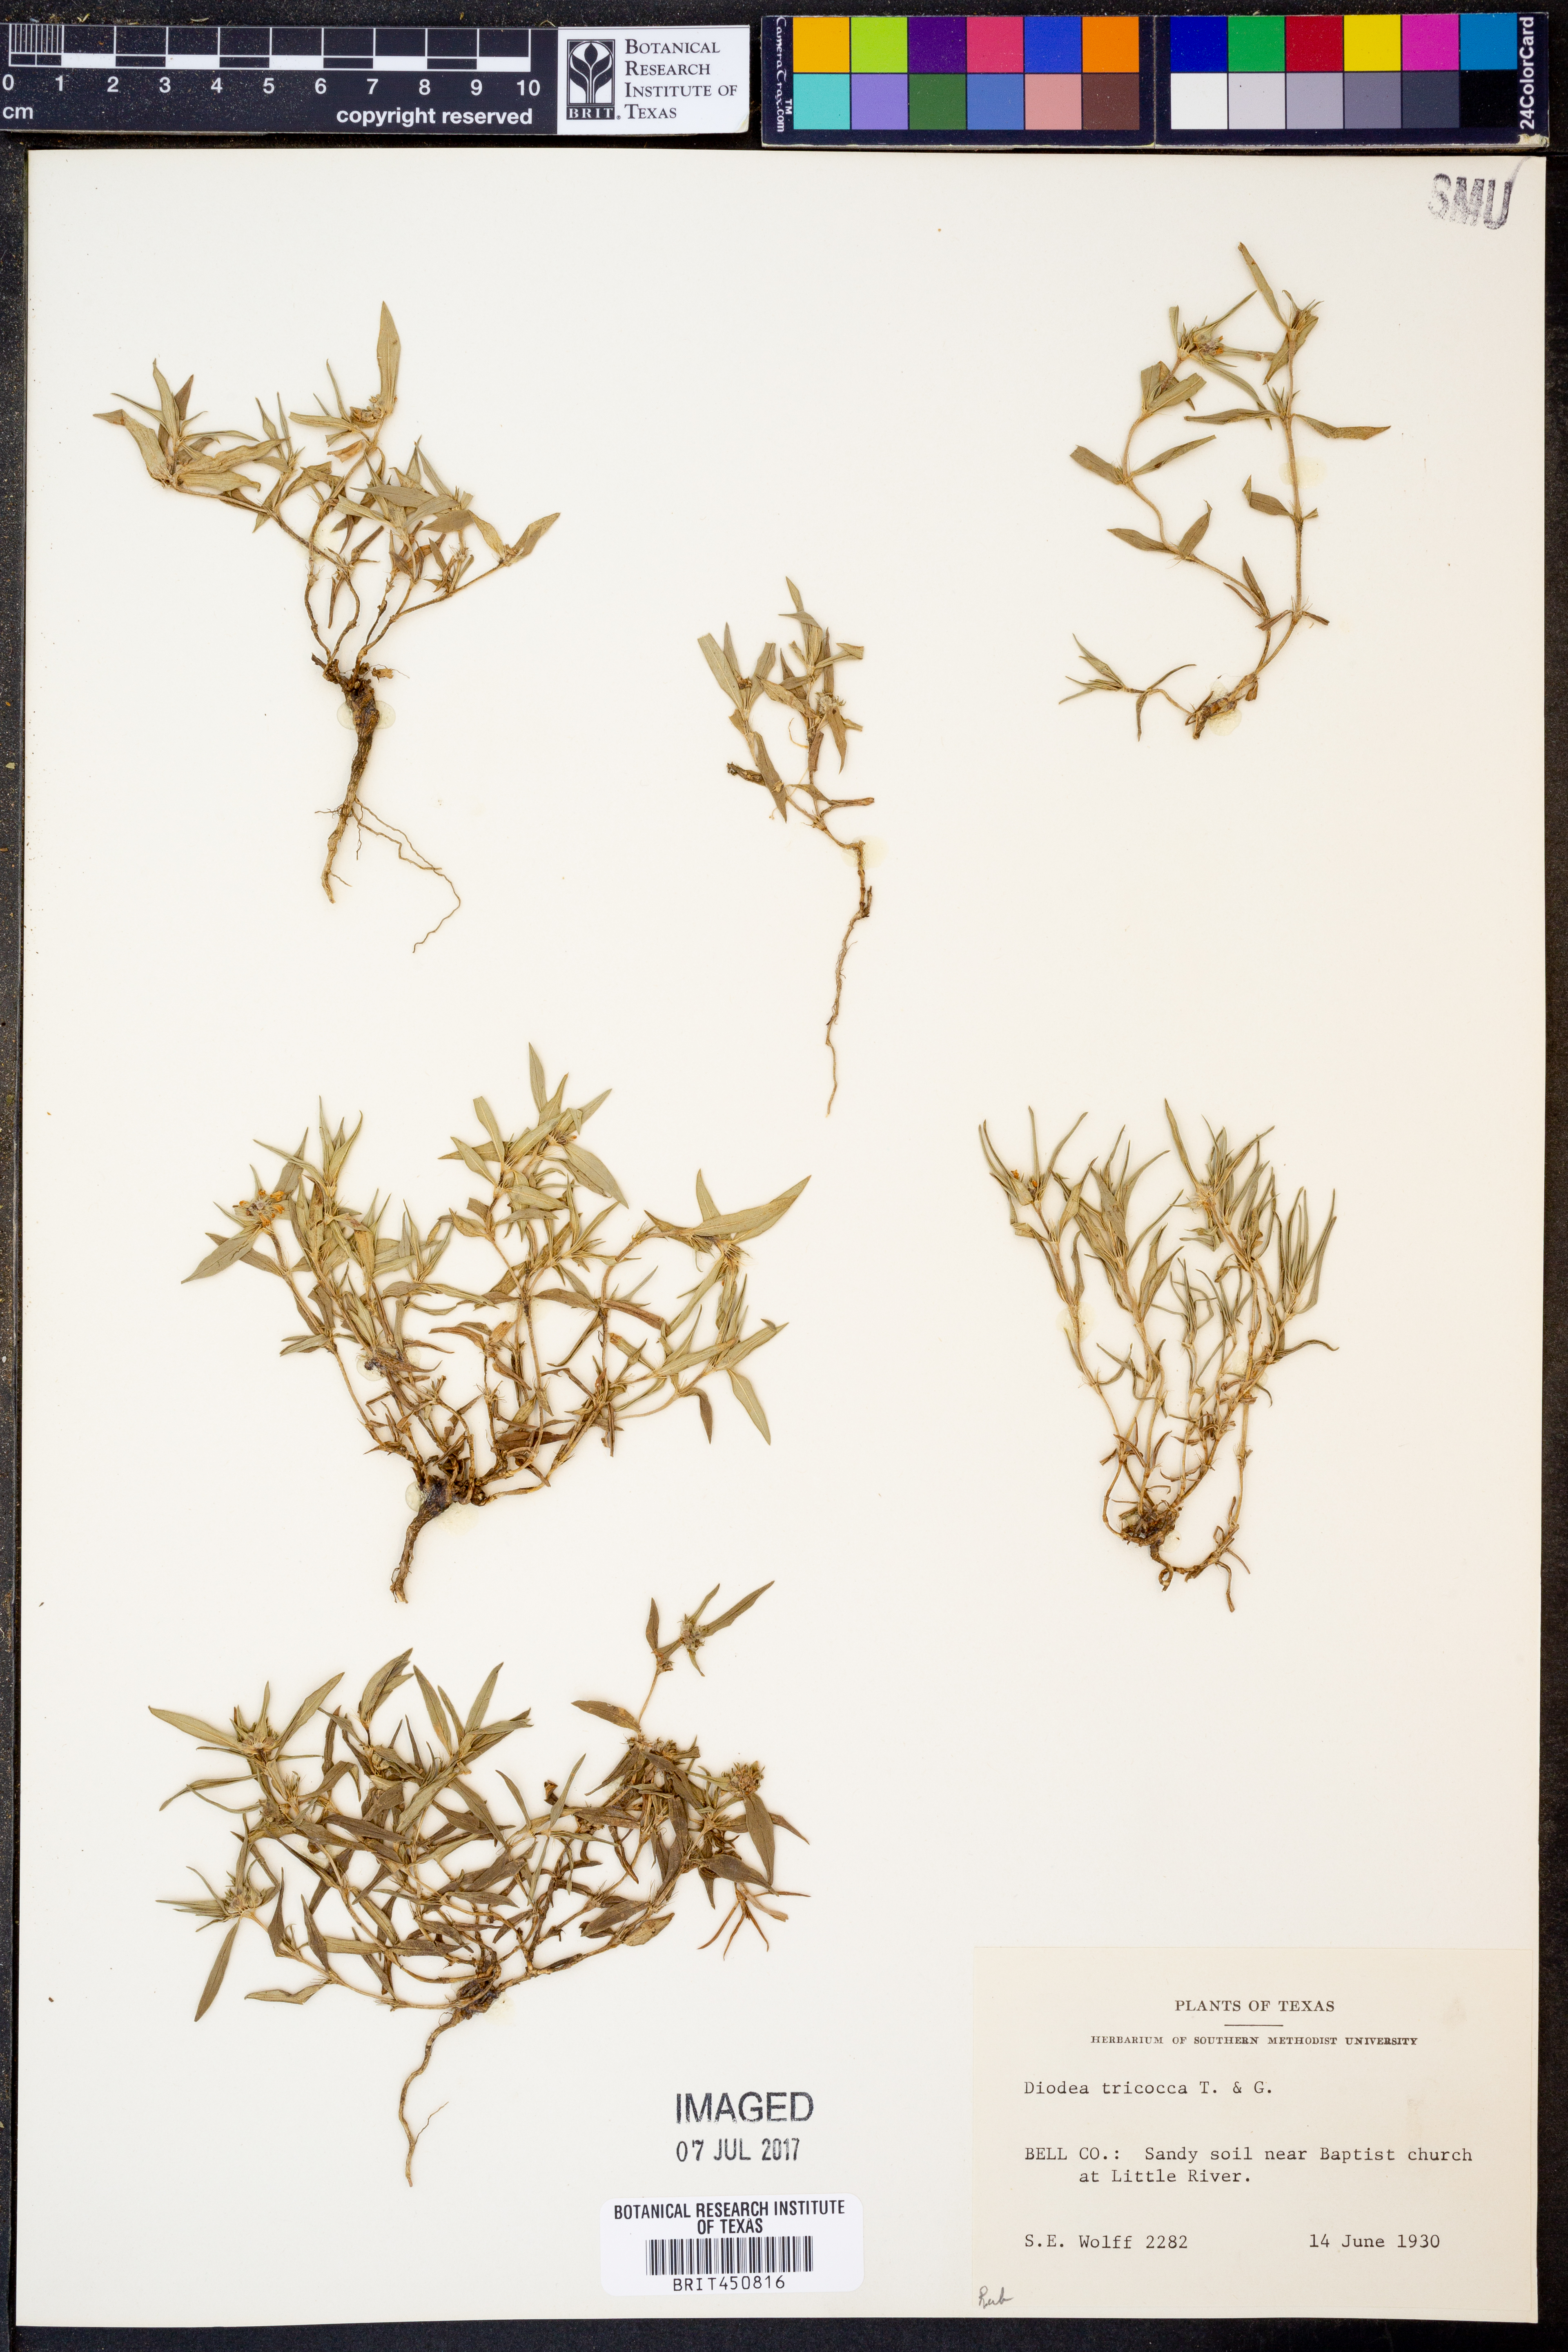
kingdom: Plantae
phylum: Tracheophyta
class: Magnoliopsida
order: Gentianales
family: Rubiaceae
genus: Richardia
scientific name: Richardia tricocca
